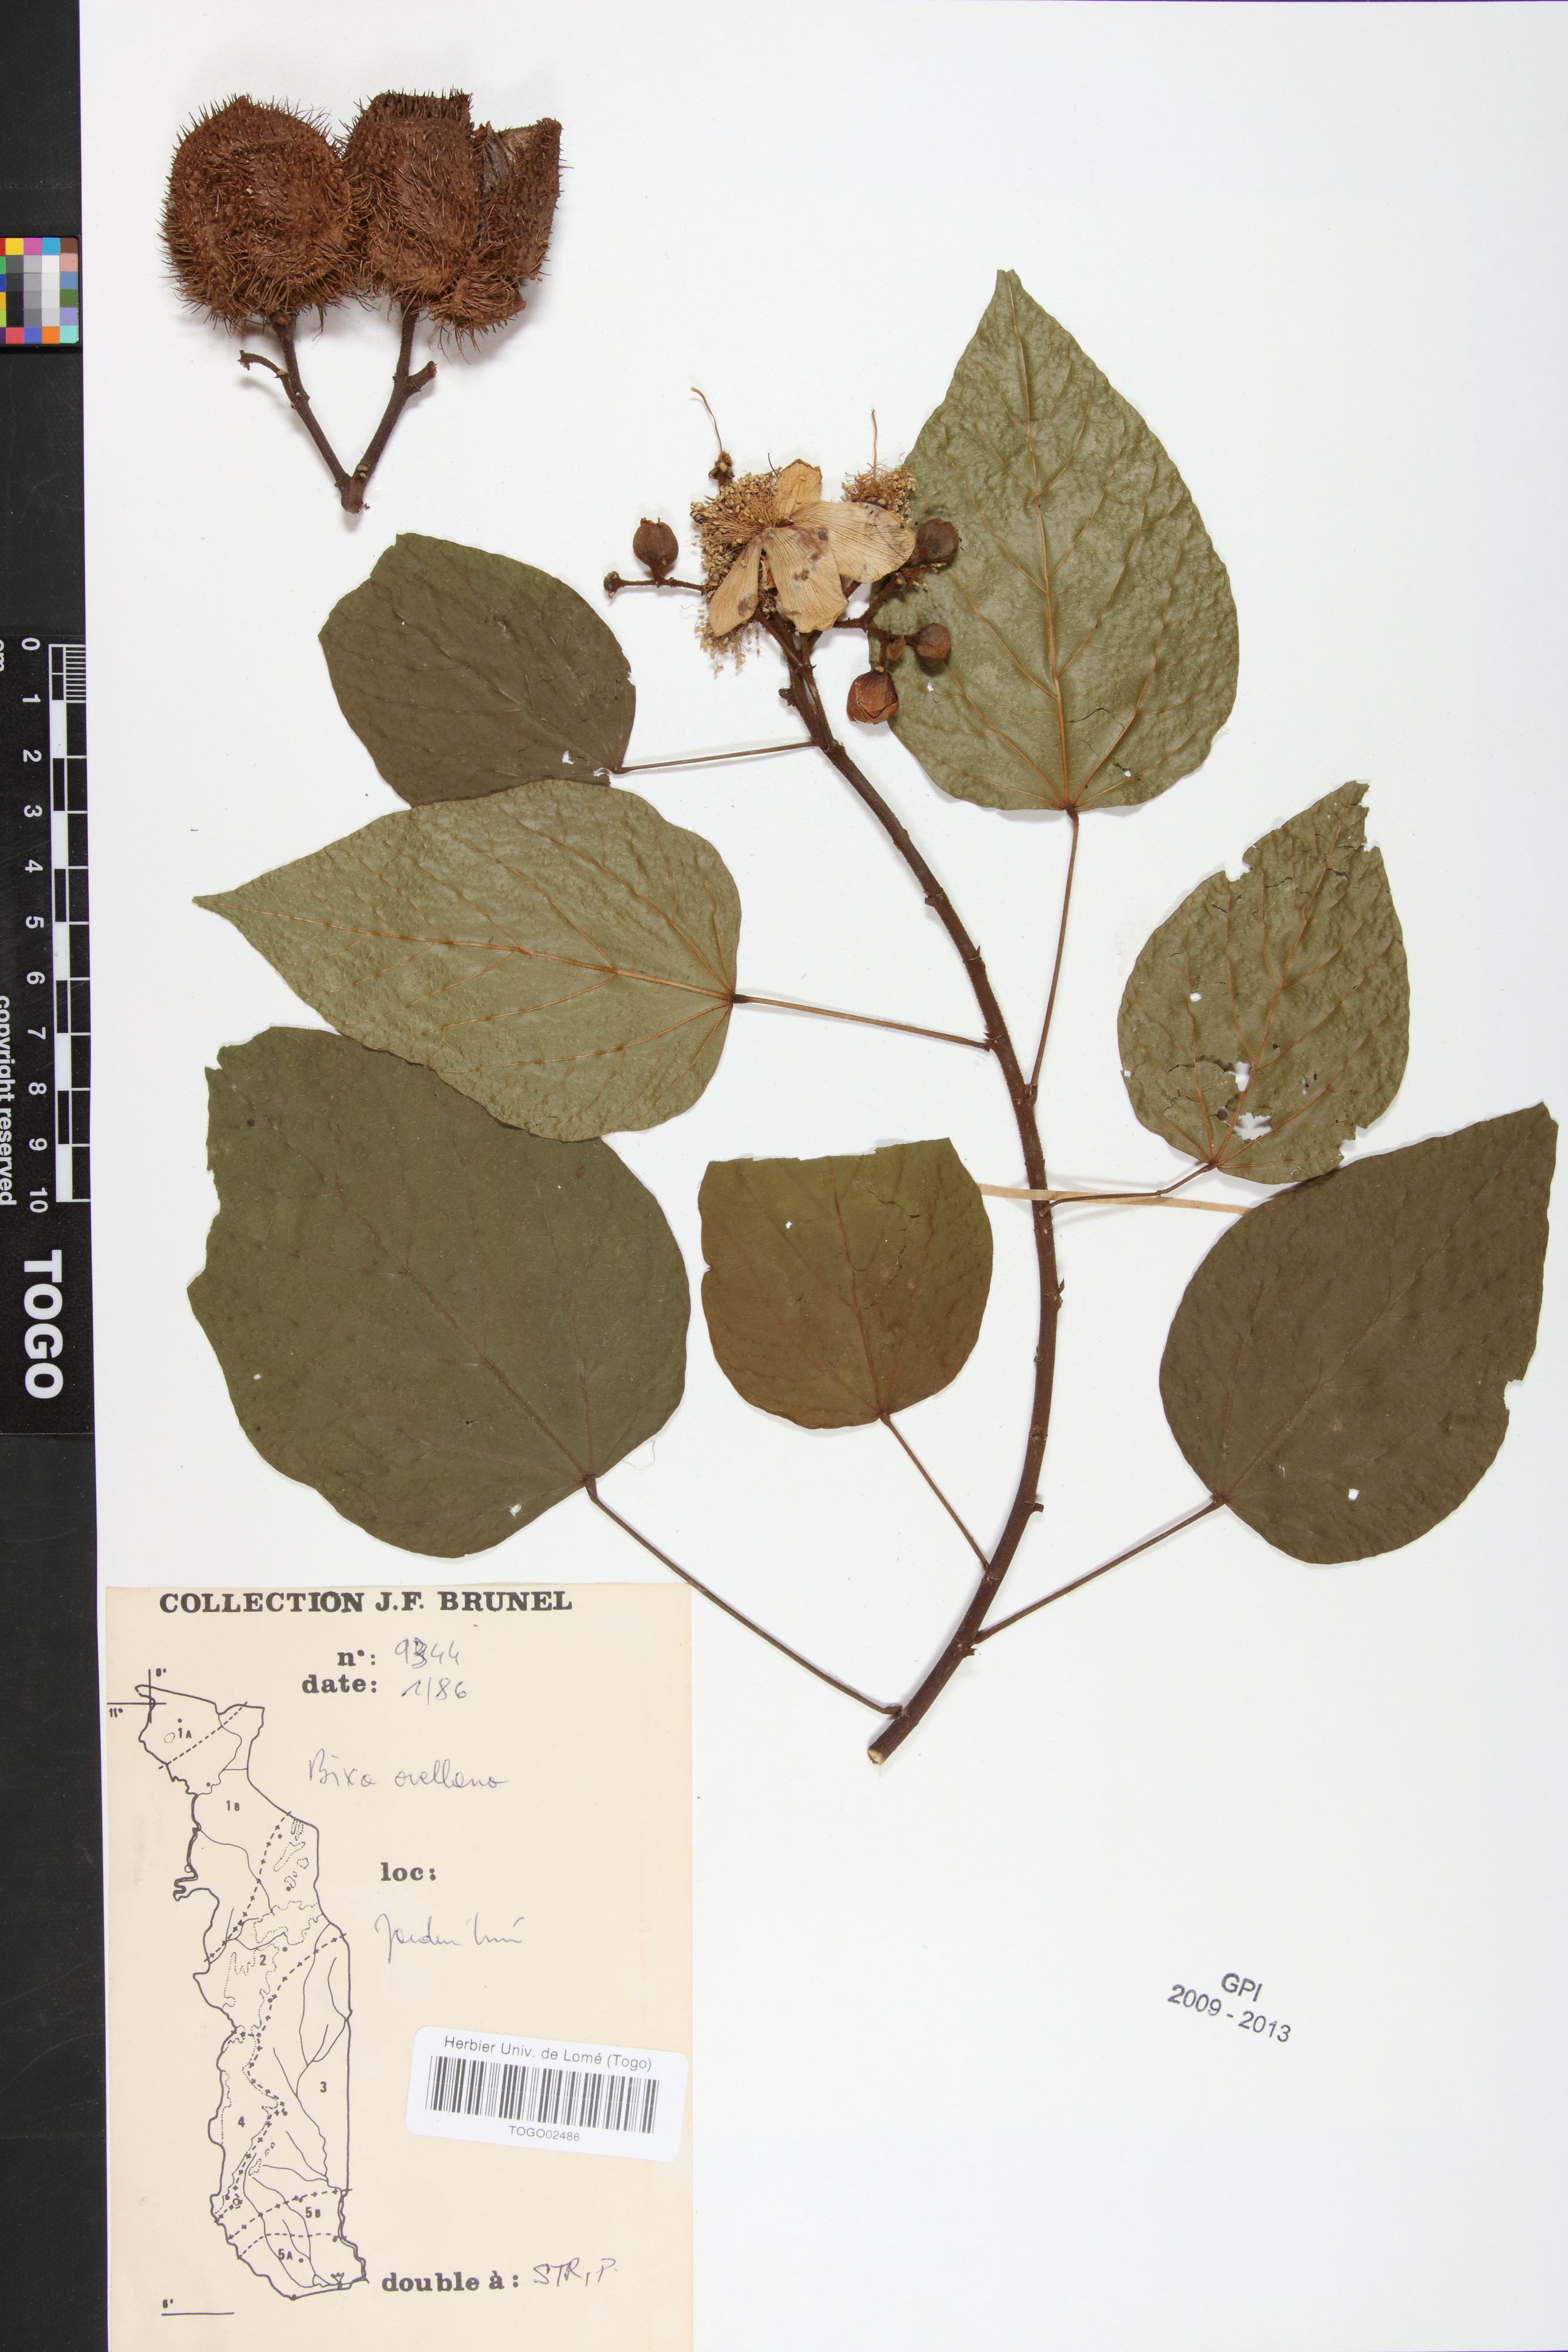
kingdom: Plantae
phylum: Tracheophyta
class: Magnoliopsida
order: Malvales
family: Bixaceae
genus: Bixa
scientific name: Bixa orellana
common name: Lipsticktree
